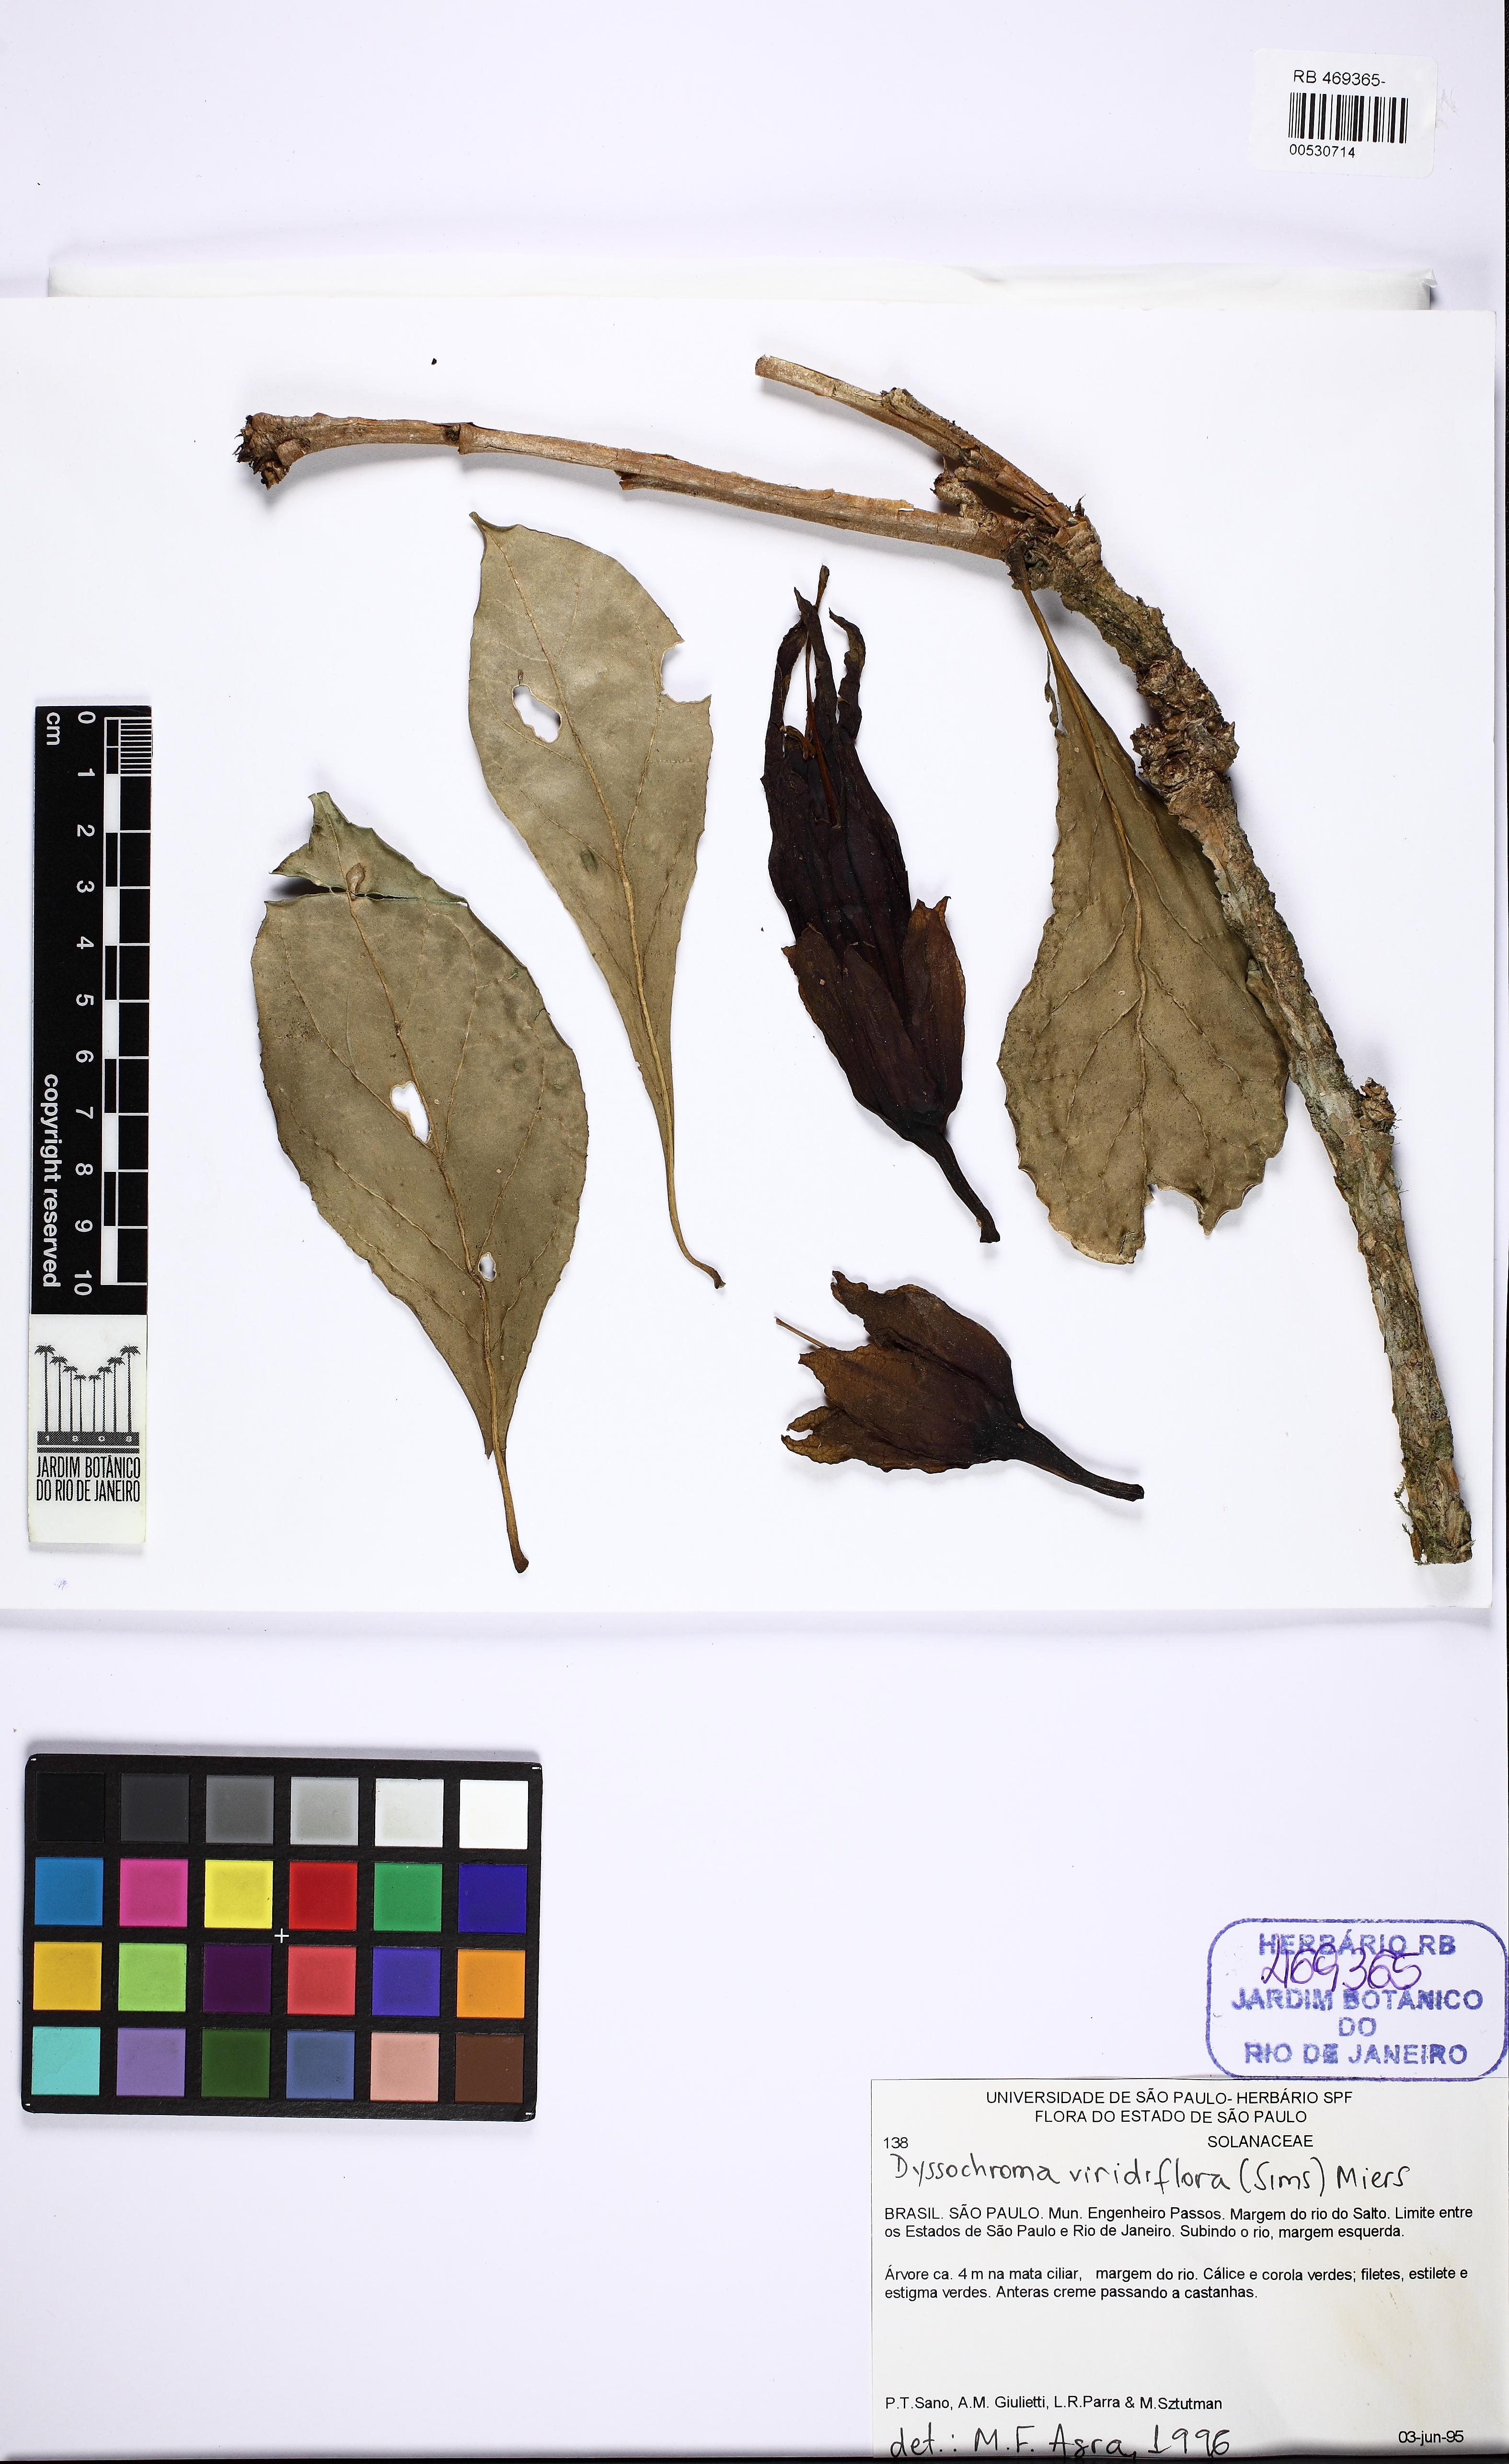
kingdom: Plantae
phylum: Tracheophyta
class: Magnoliopsida
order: Solanales
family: Solanaceae
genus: Dyssochroma
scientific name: Dyssochroma viridiflorum
